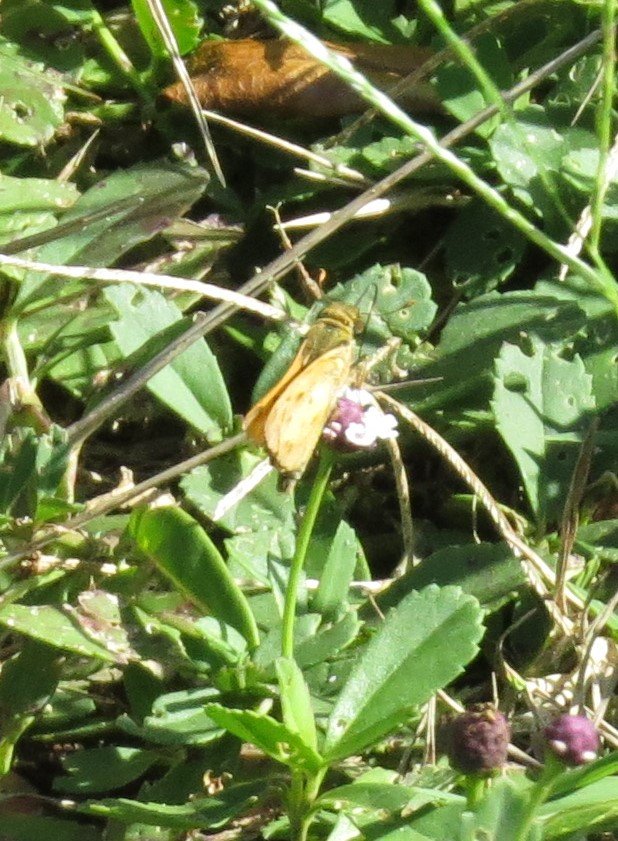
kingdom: Animalia
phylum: Arthropoda
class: Insecta
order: Lepidoptera
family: Hesperiidae
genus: Hylephila
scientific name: Hylephila phyleus
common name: Fiery Skipper
